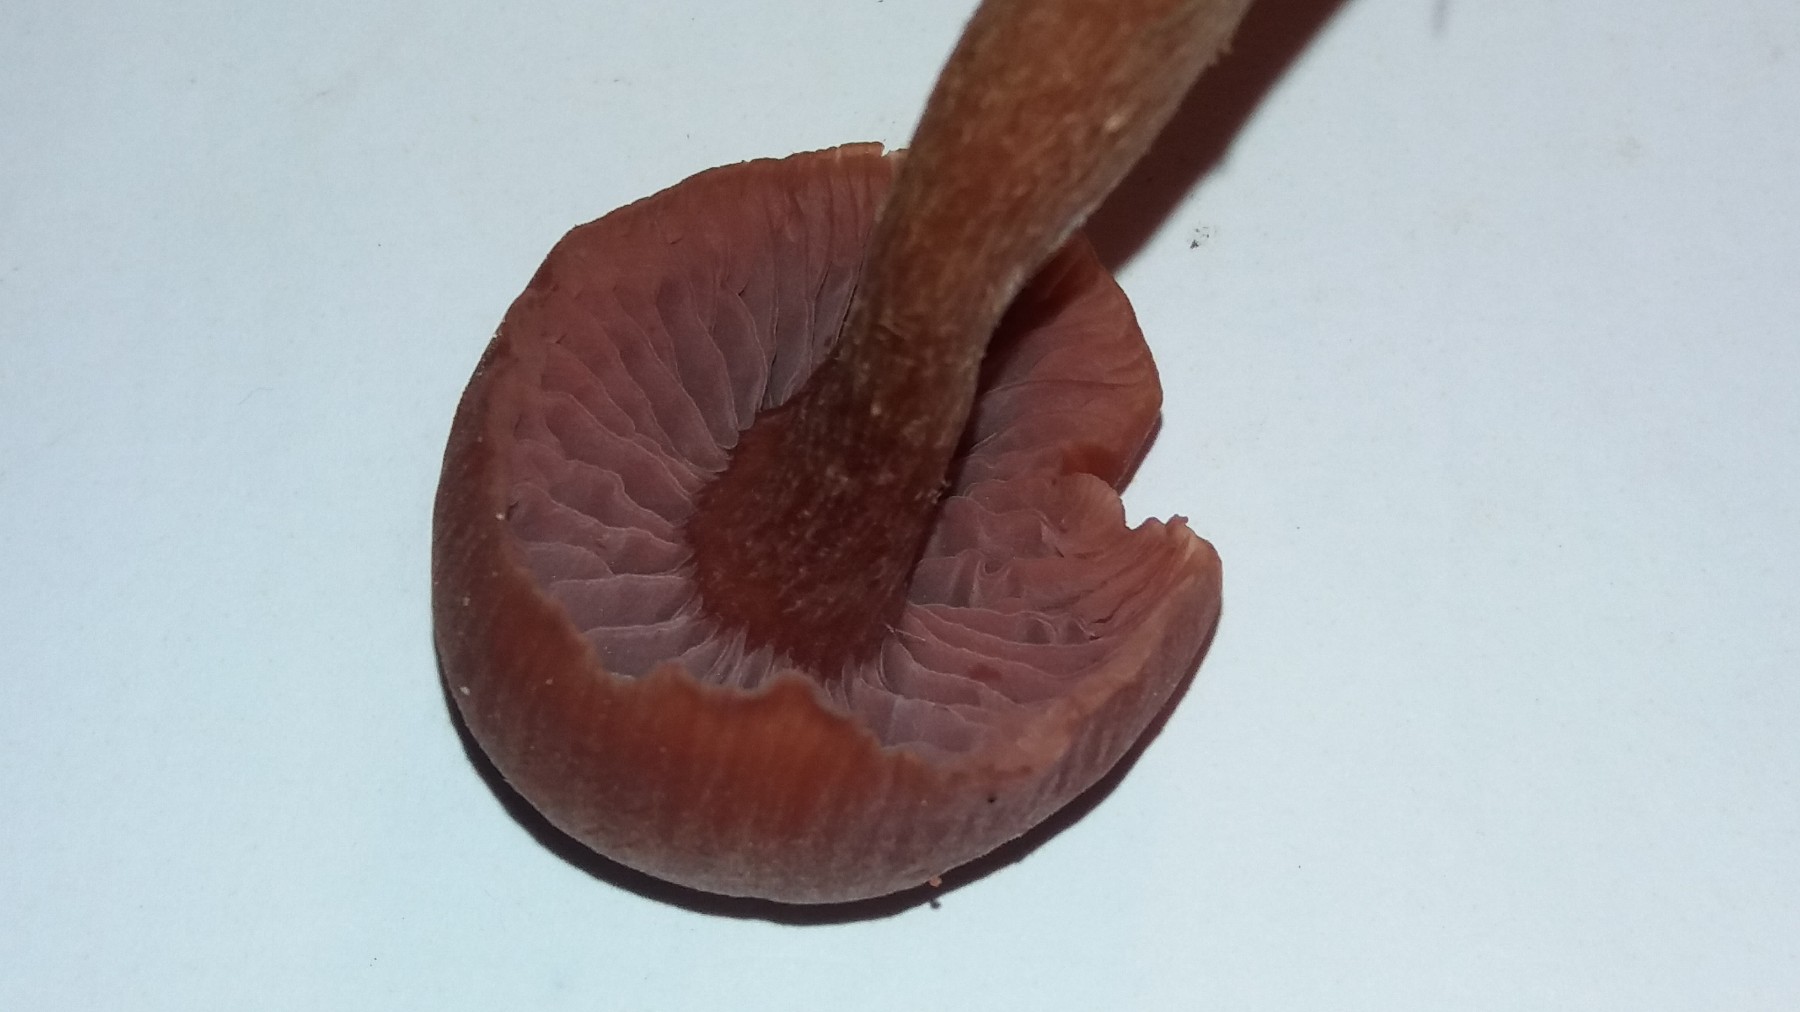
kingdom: Fungi
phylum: Basidiomycota
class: Agaricomycetes
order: Agaricales
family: Hydnangiaceae
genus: Laccaria
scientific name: Laccaria proxima
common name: stor ametysthat
